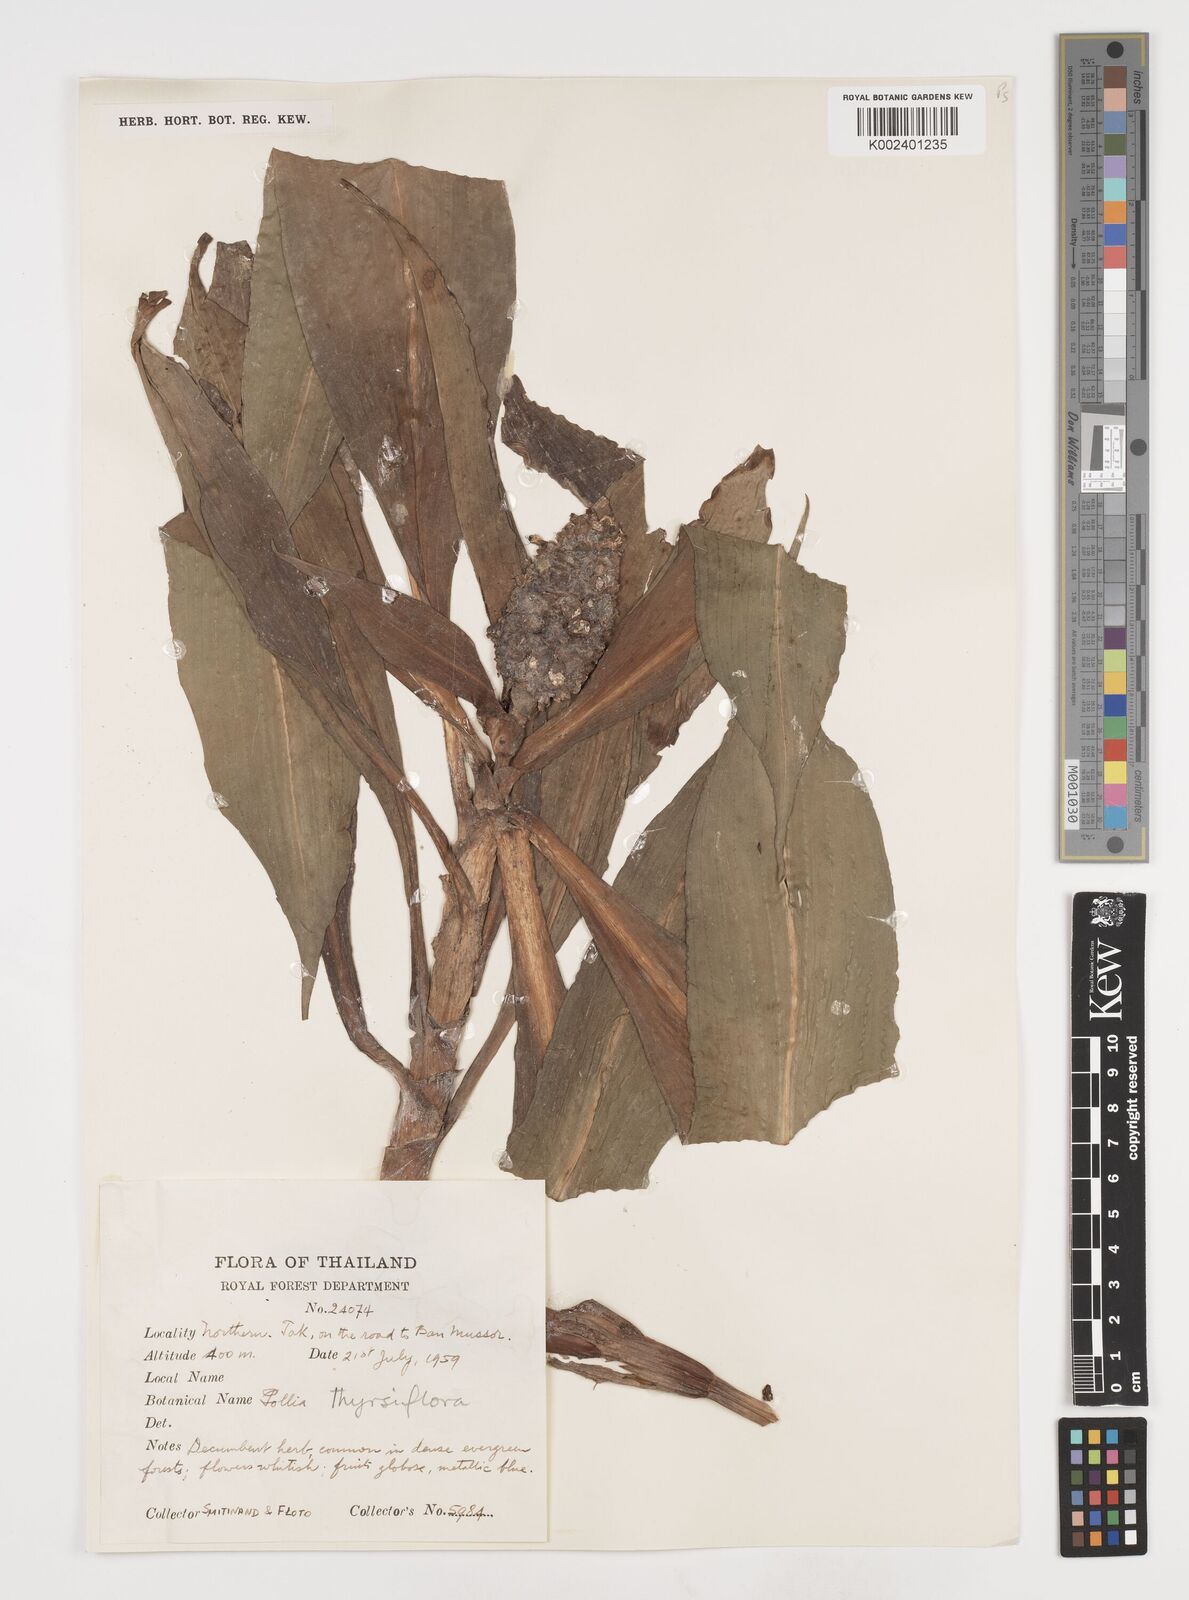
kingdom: Plantae
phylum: Tracheophyta
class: Liliopsida
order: Commelinales
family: Commelinaceae
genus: Pollia
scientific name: Pollia thyrsiflora
